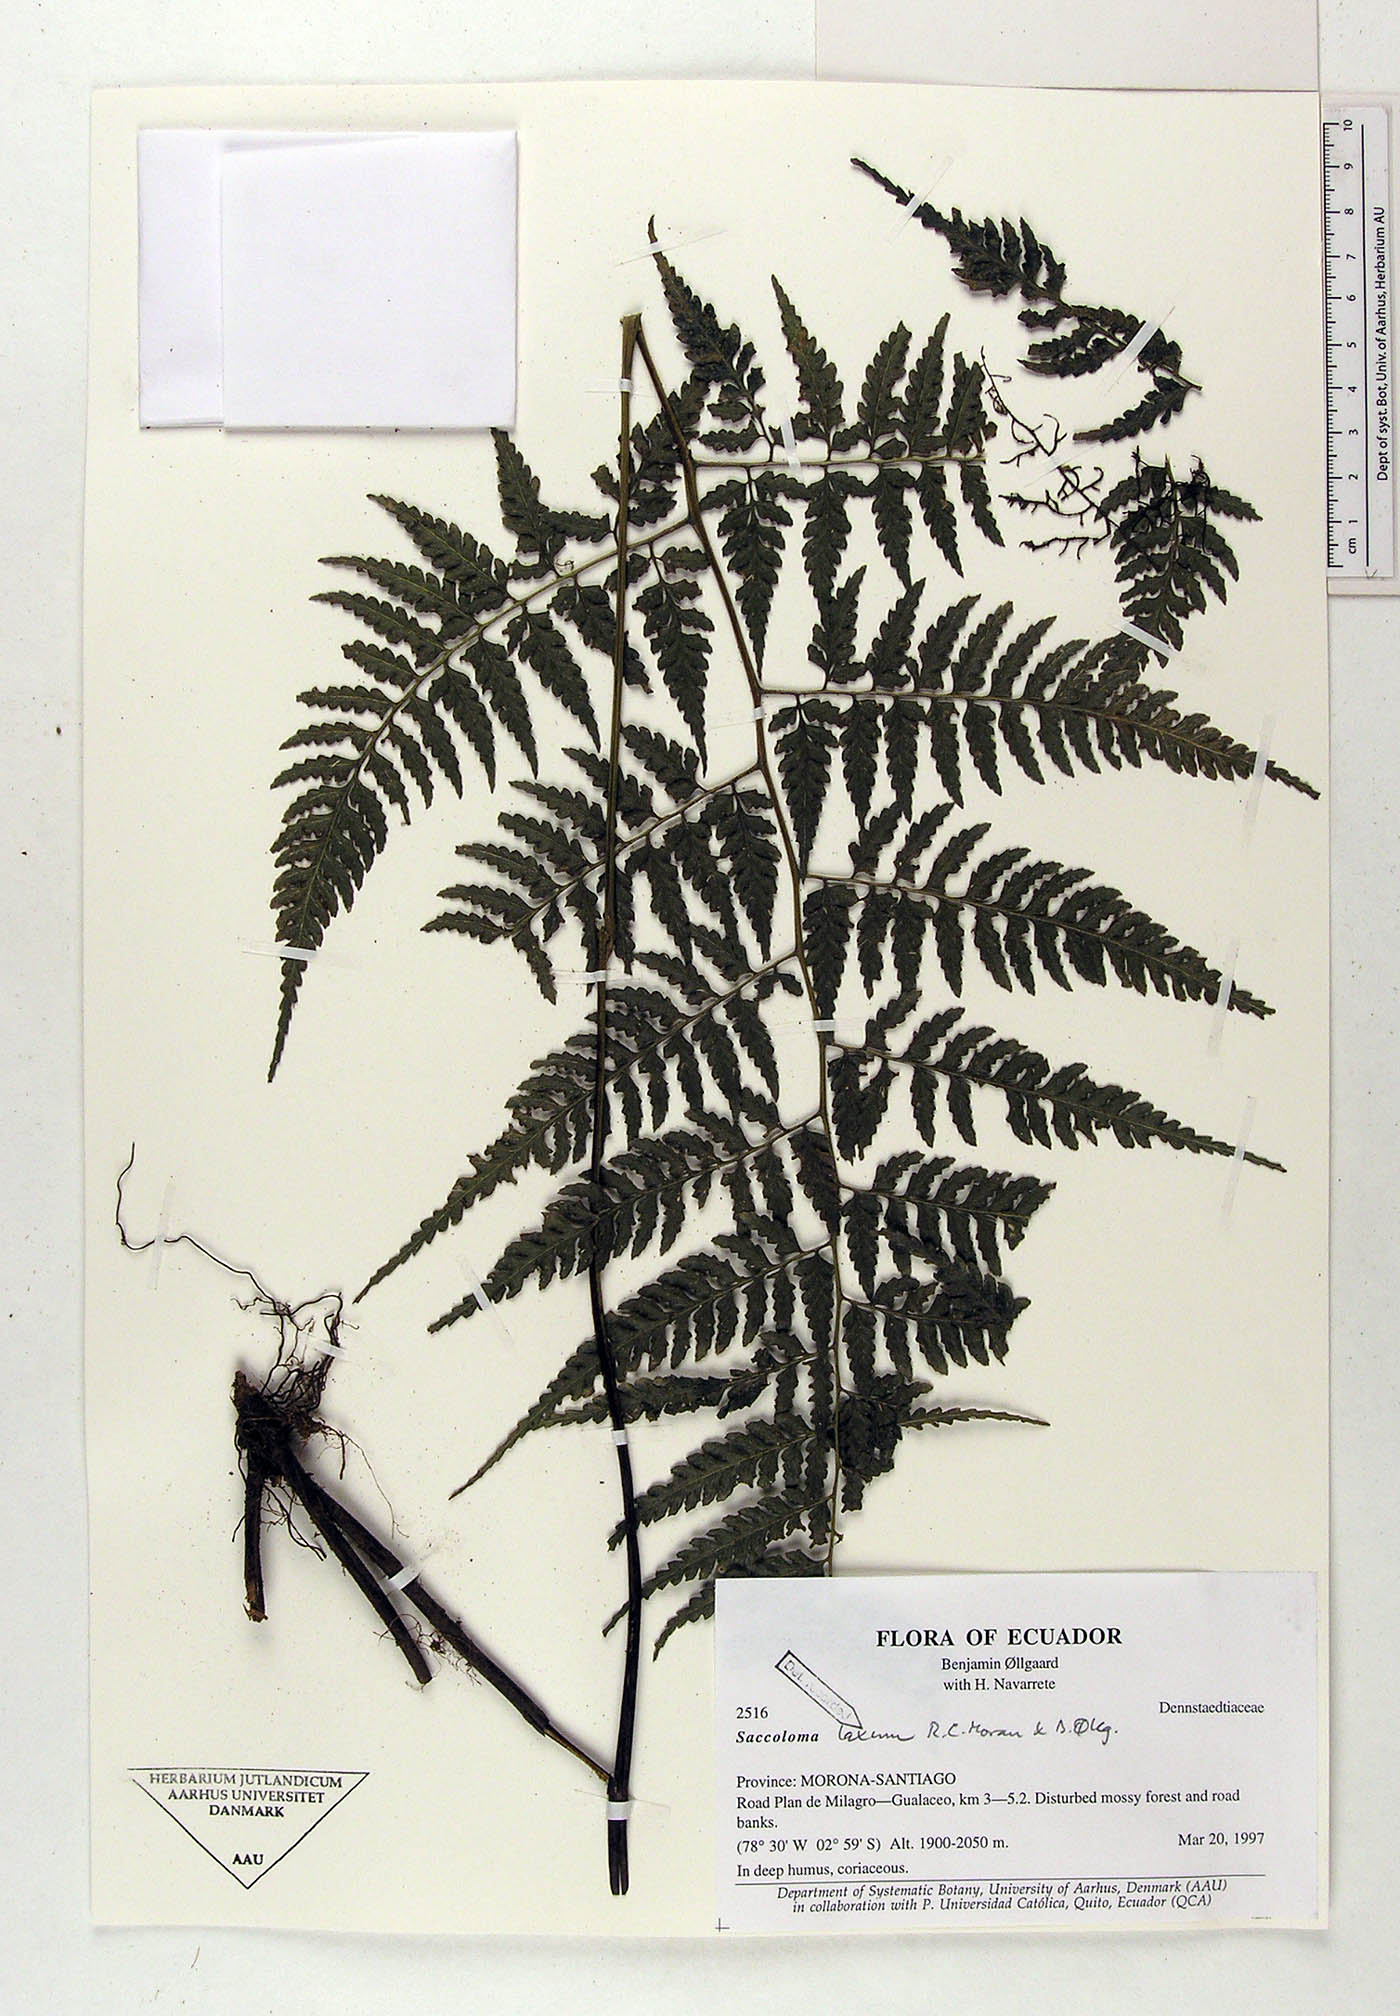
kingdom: Plantae
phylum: Tracheophyta
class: Polypodiopsida
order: Polypodiales
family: Saccolomataceae
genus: Saccoloma
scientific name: Saccoloma laxum
